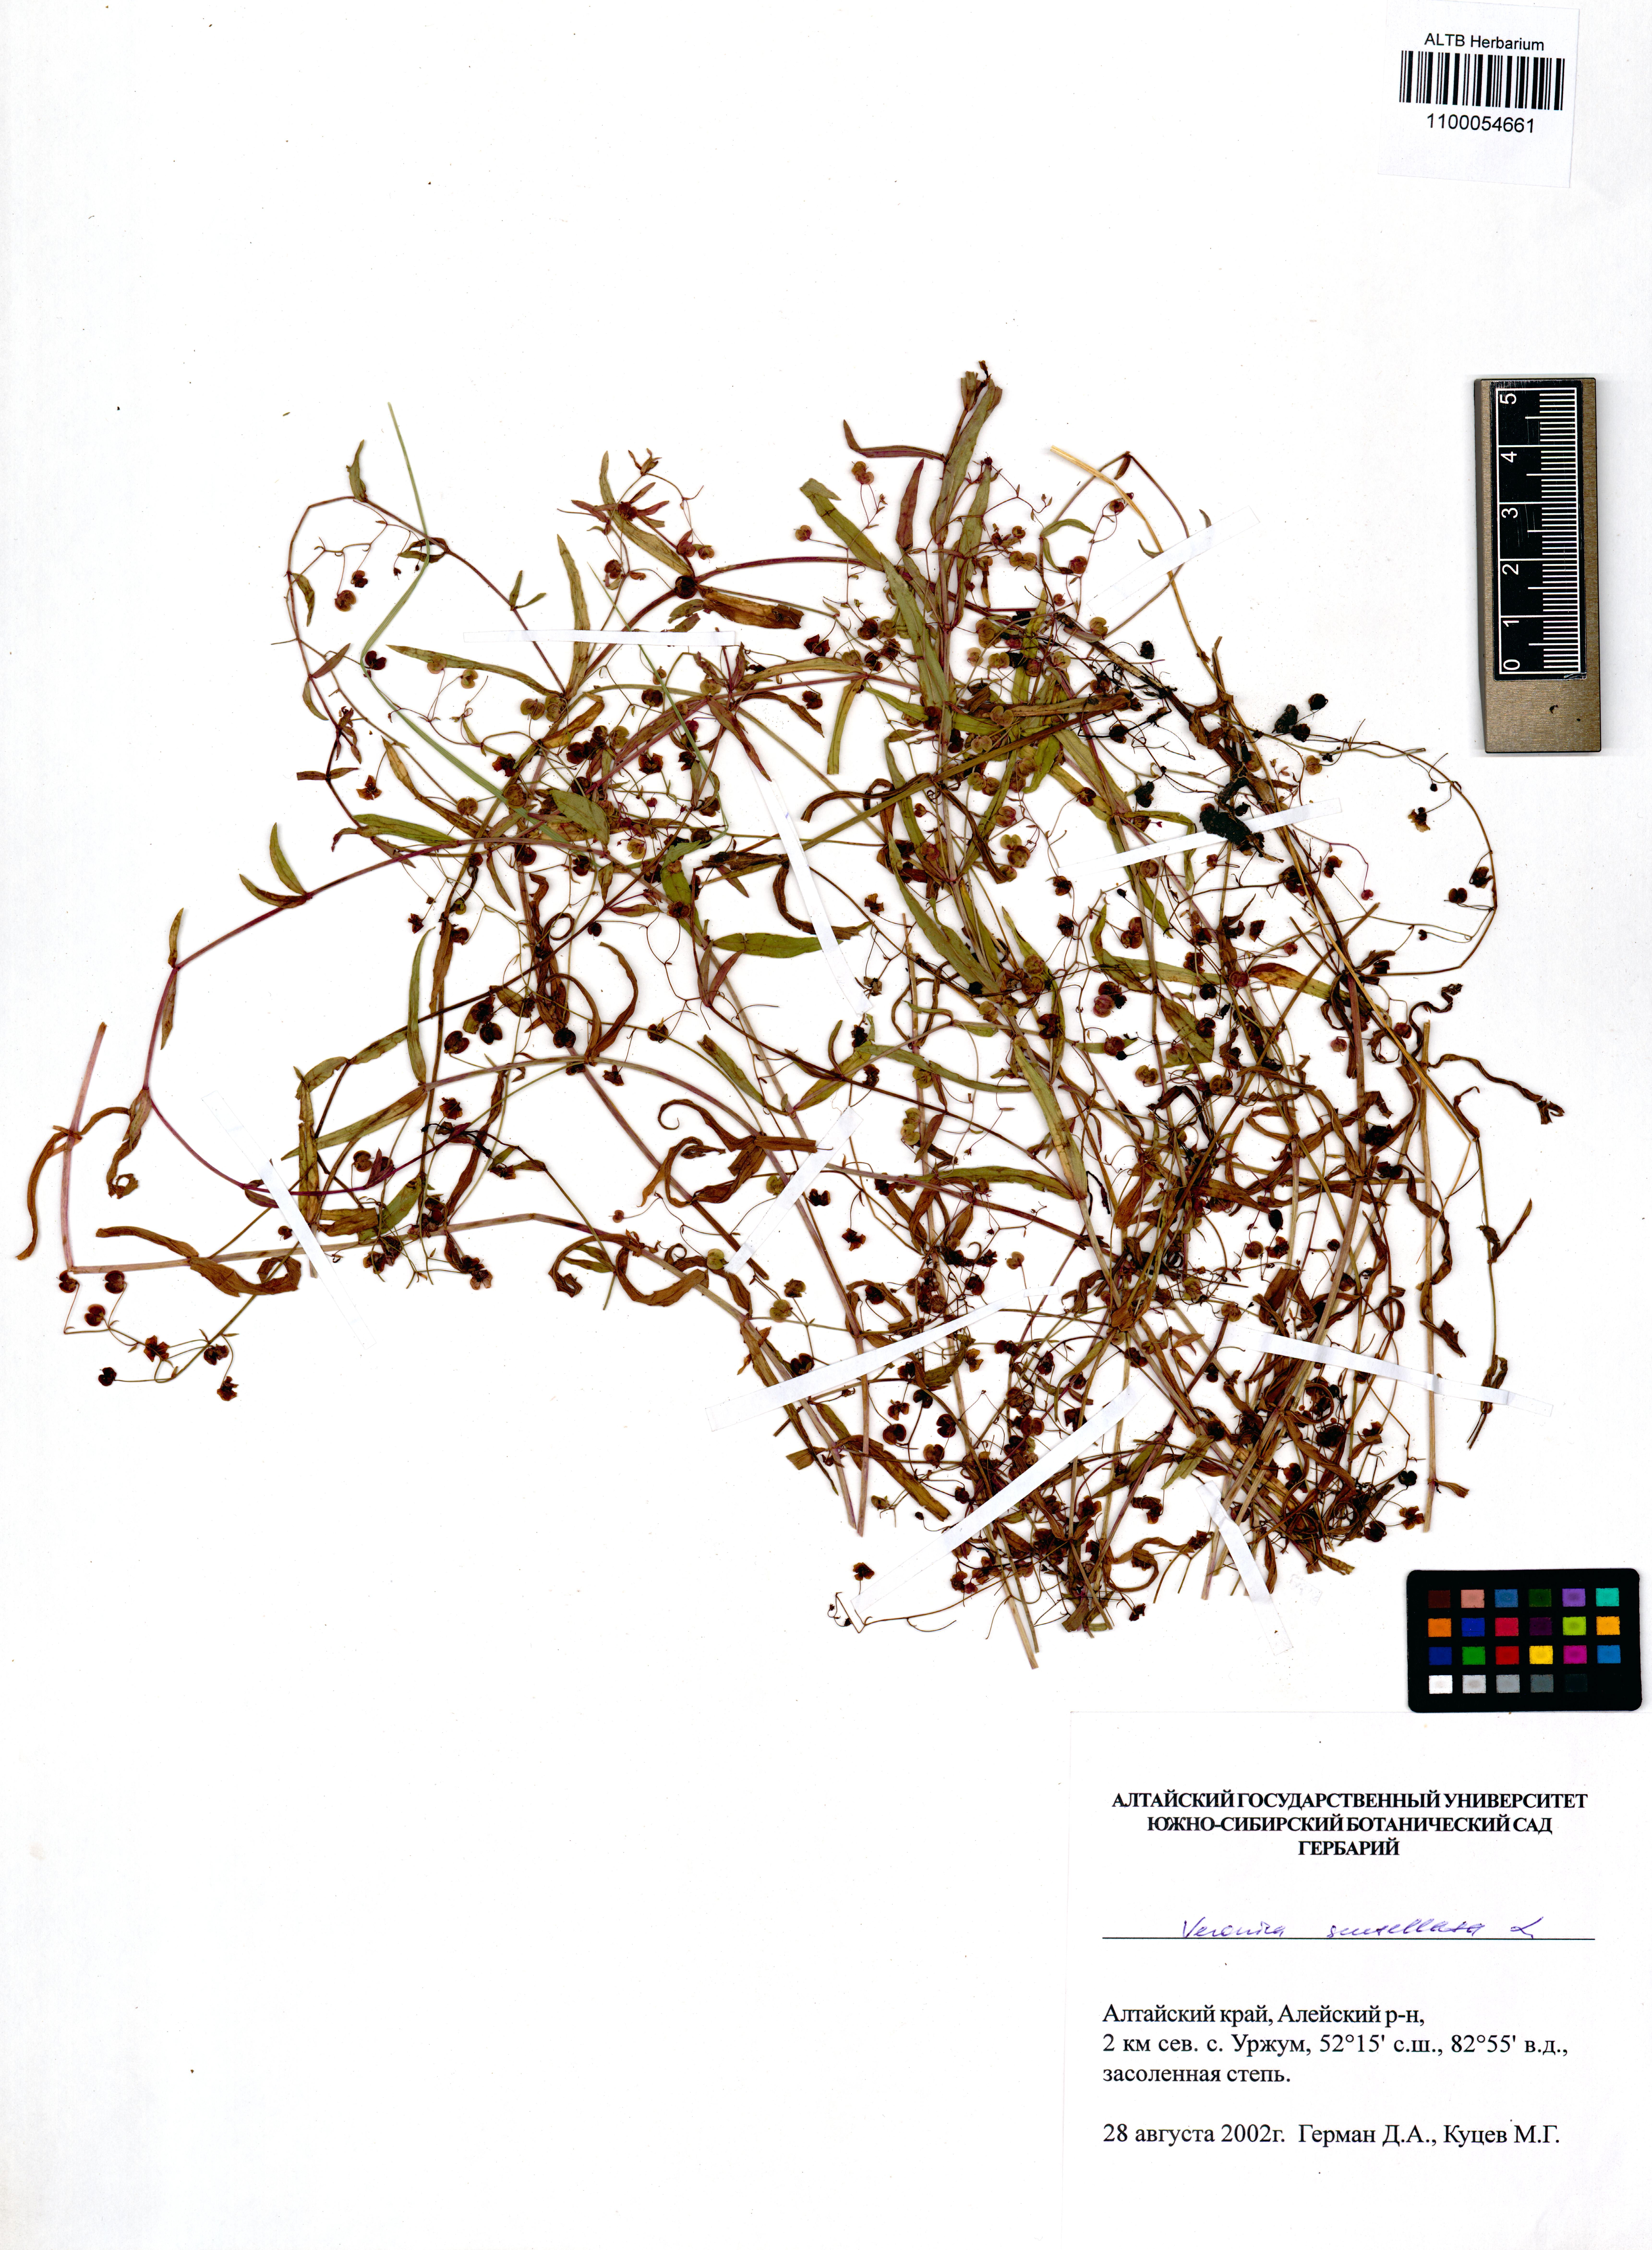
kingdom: Plantae
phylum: Tracheophyta
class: Magnoliopsida
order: Lamiales
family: Plantaginaceae
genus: Veronica
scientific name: Veronica scutellata
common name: Marsh speedwell
